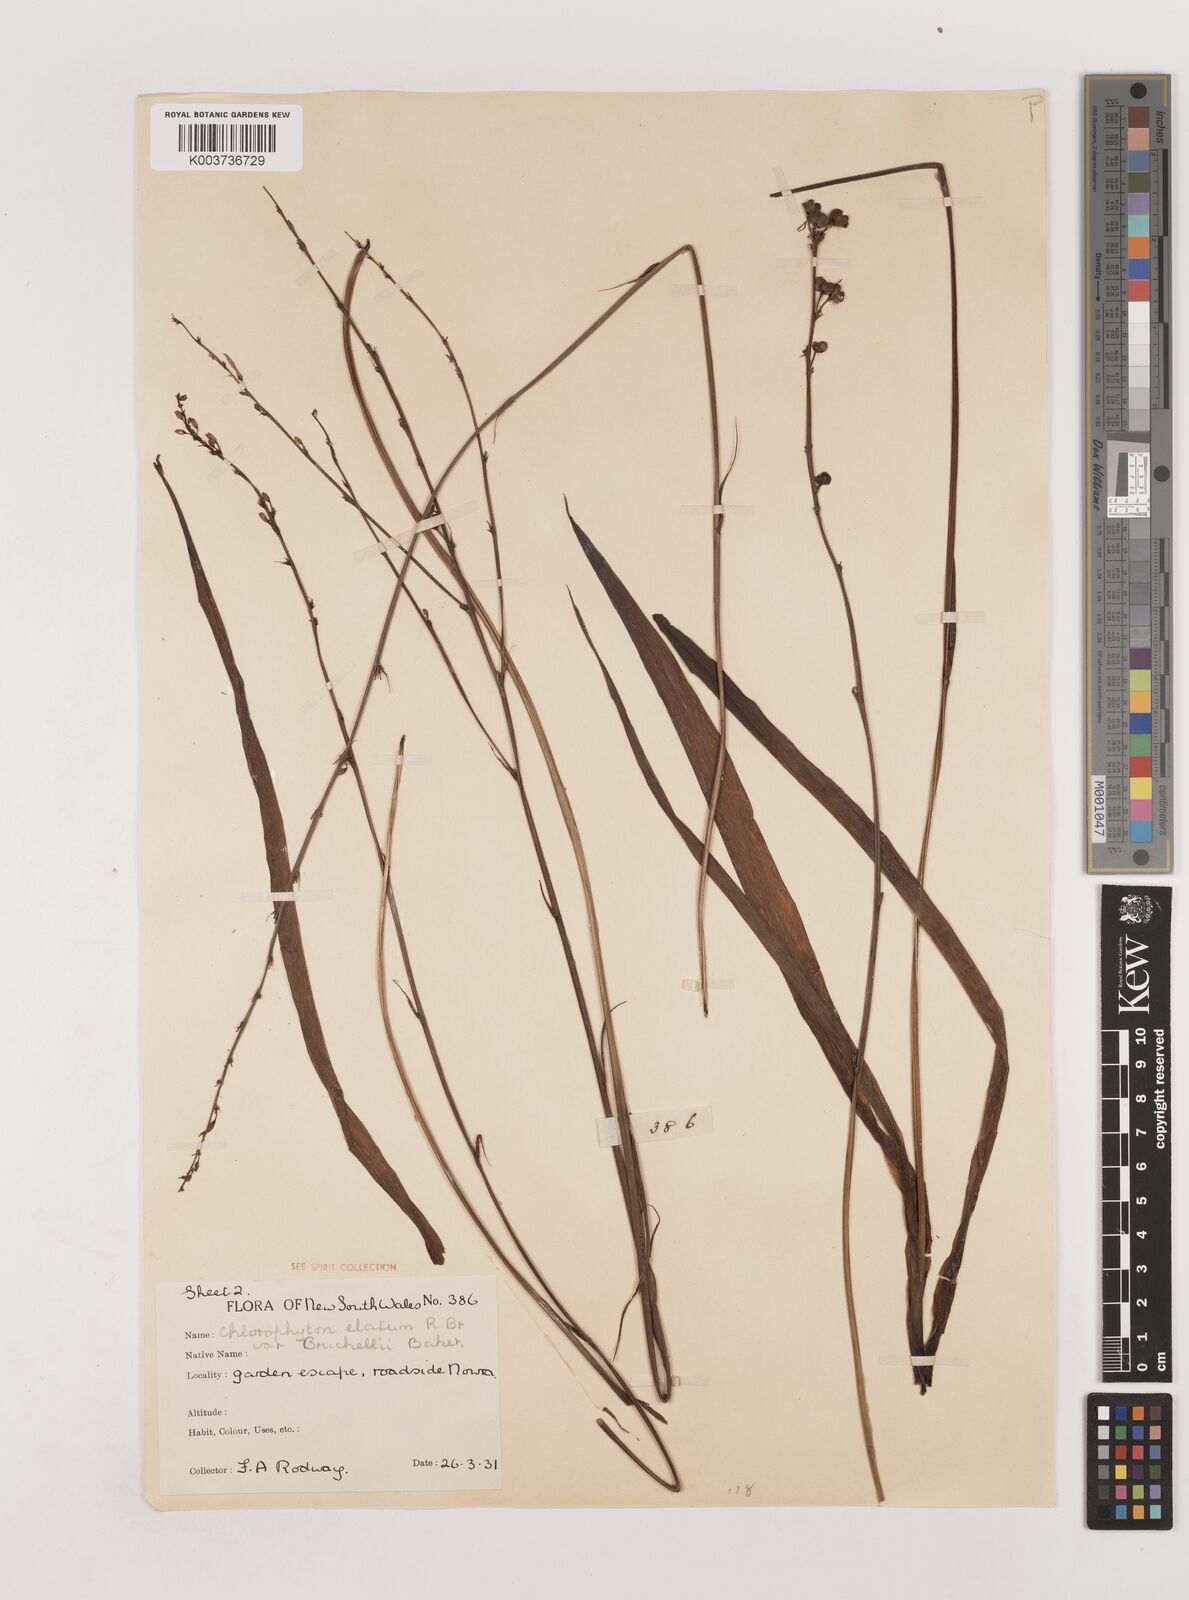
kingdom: Plantae
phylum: Tracheophyta
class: Liliopsida
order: Asparagales
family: Asparagaceae
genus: Chlorophytum
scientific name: Chlorophytum capense
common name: Bracketplant
